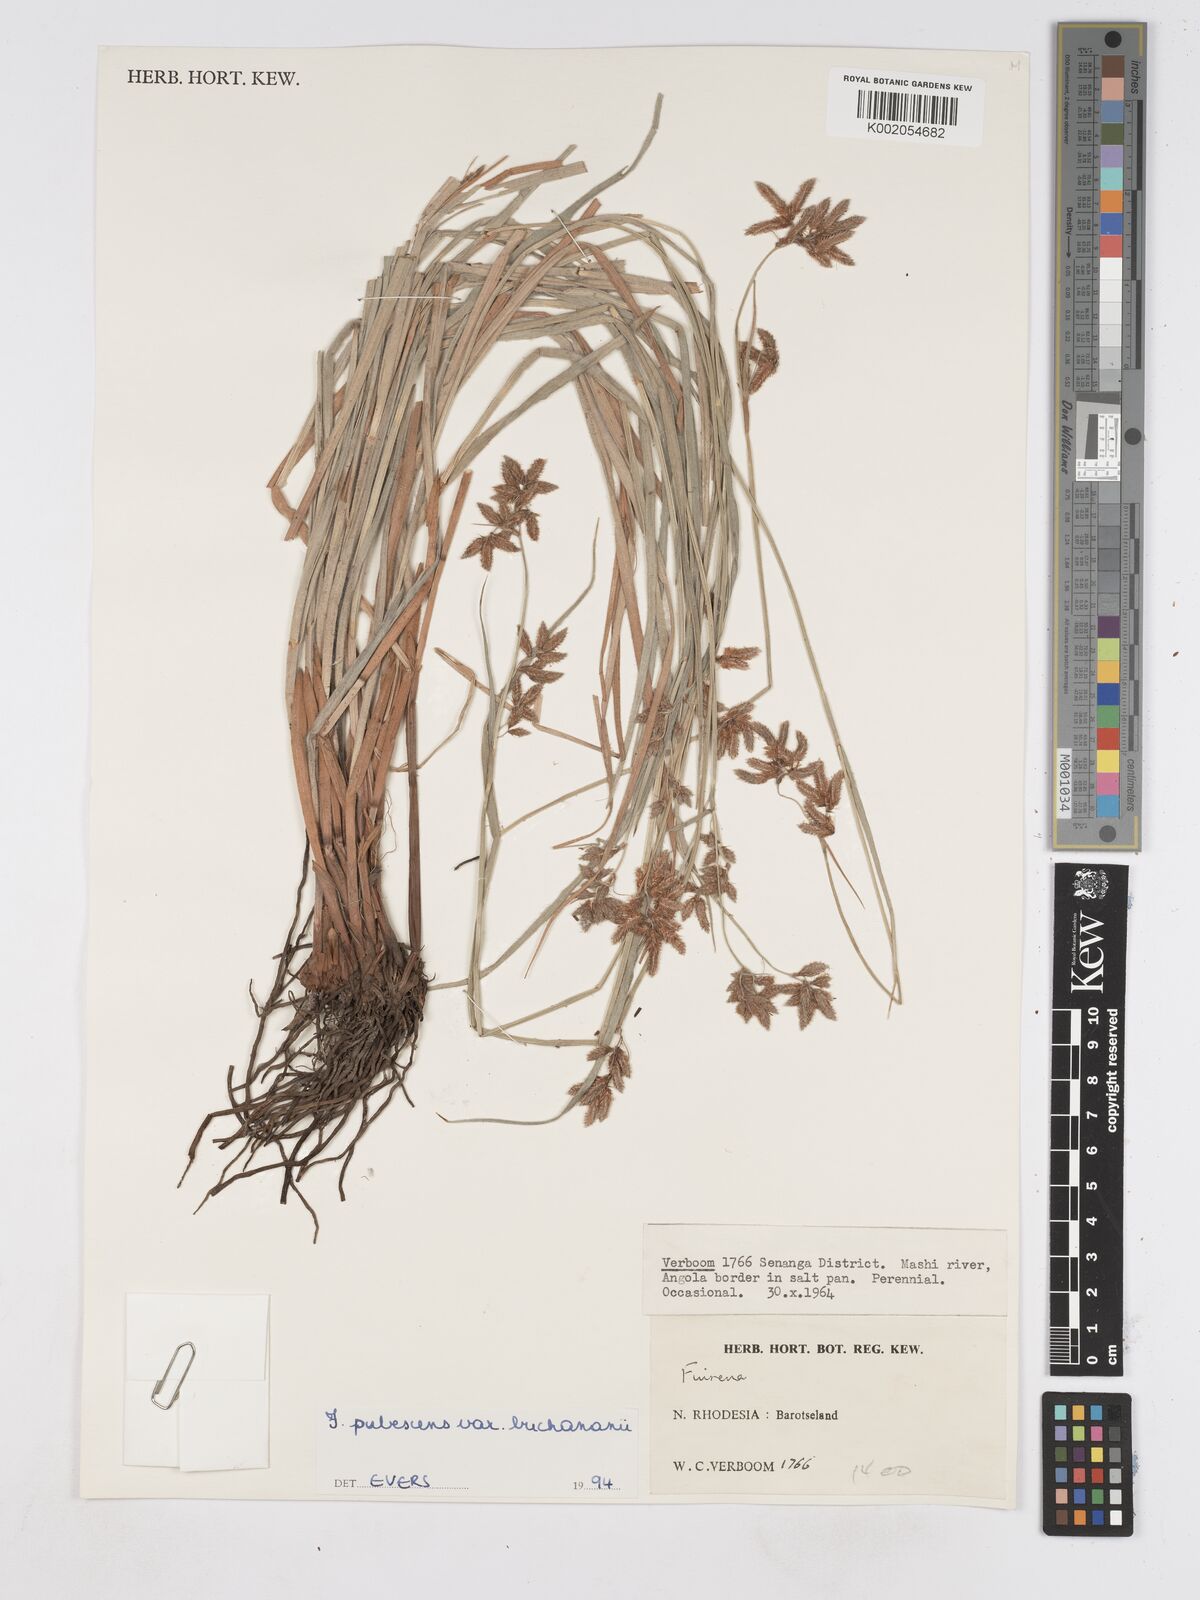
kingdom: Plantae
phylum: Tracheophyta
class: Liliopsida
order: Poales
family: Cyperaceae
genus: Fuirena
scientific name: Fuirena pachyrrhiza
